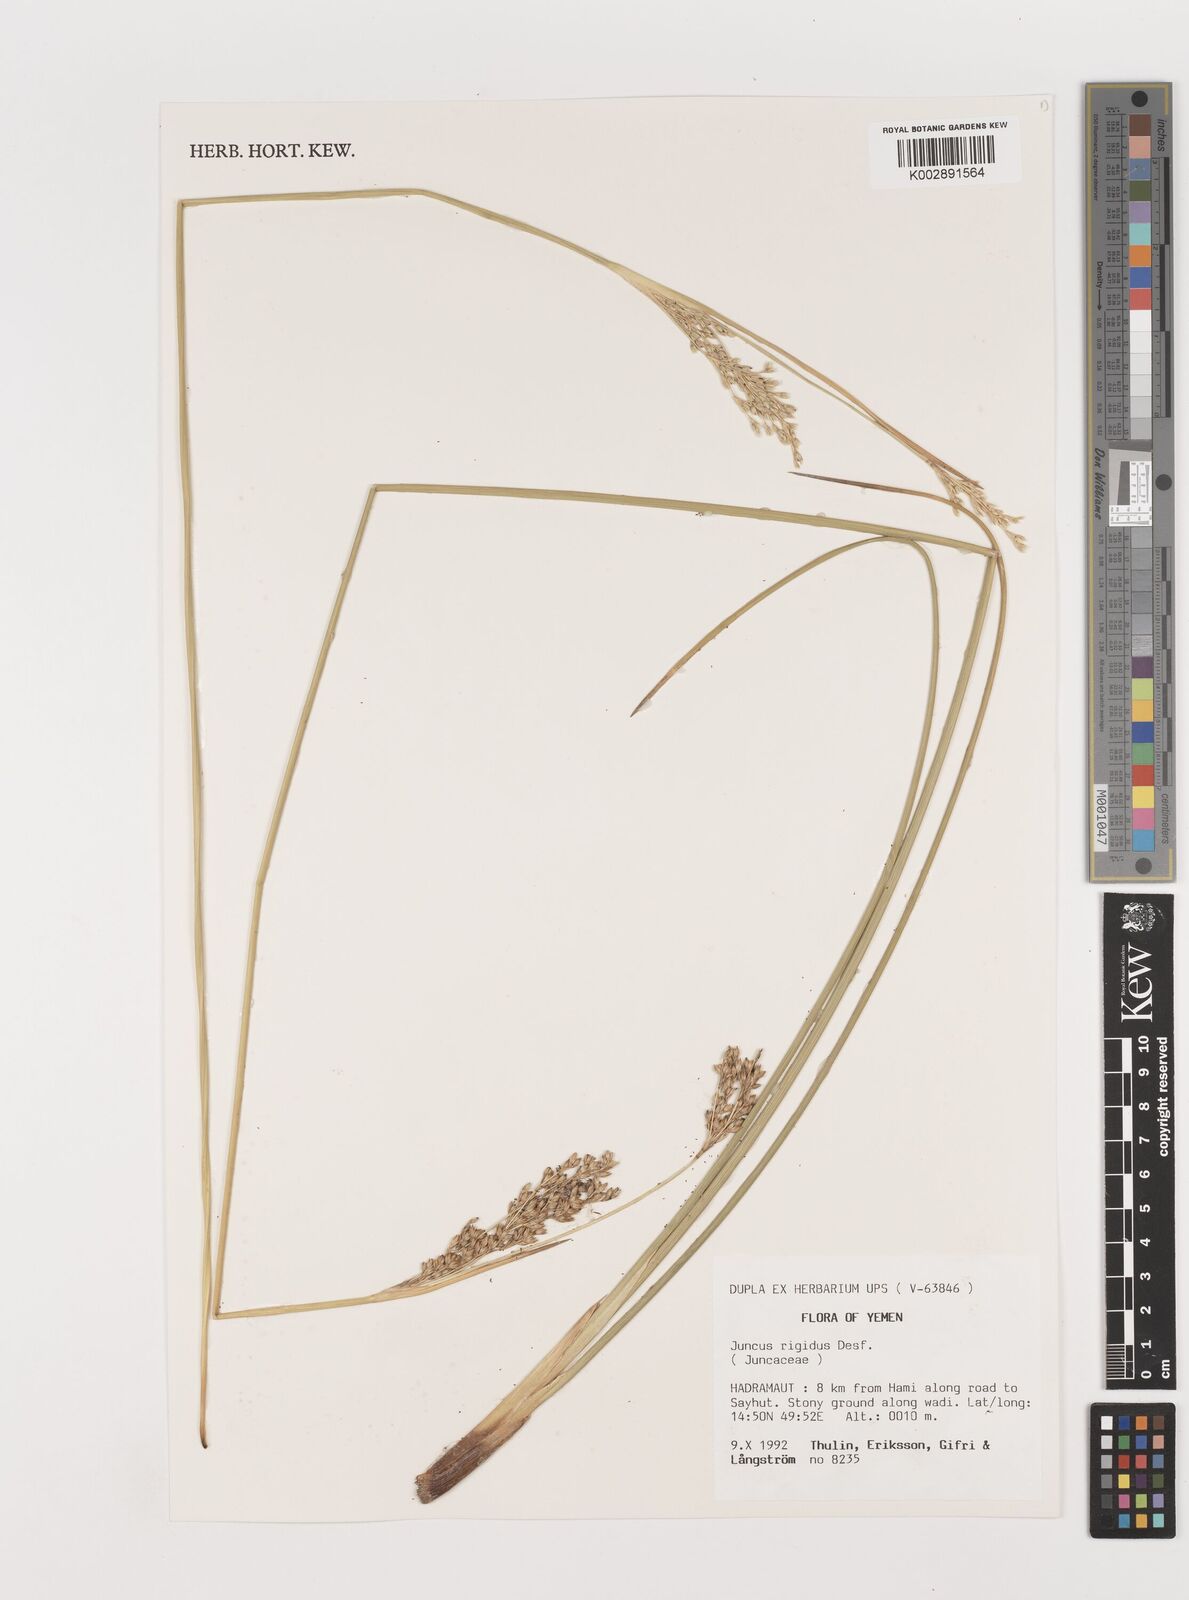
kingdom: Plantae
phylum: Tracheophyta
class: Liliopsida
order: Poales
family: Juncaceae
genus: Juncus
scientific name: Juncus rigidus
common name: Hard sea rush
